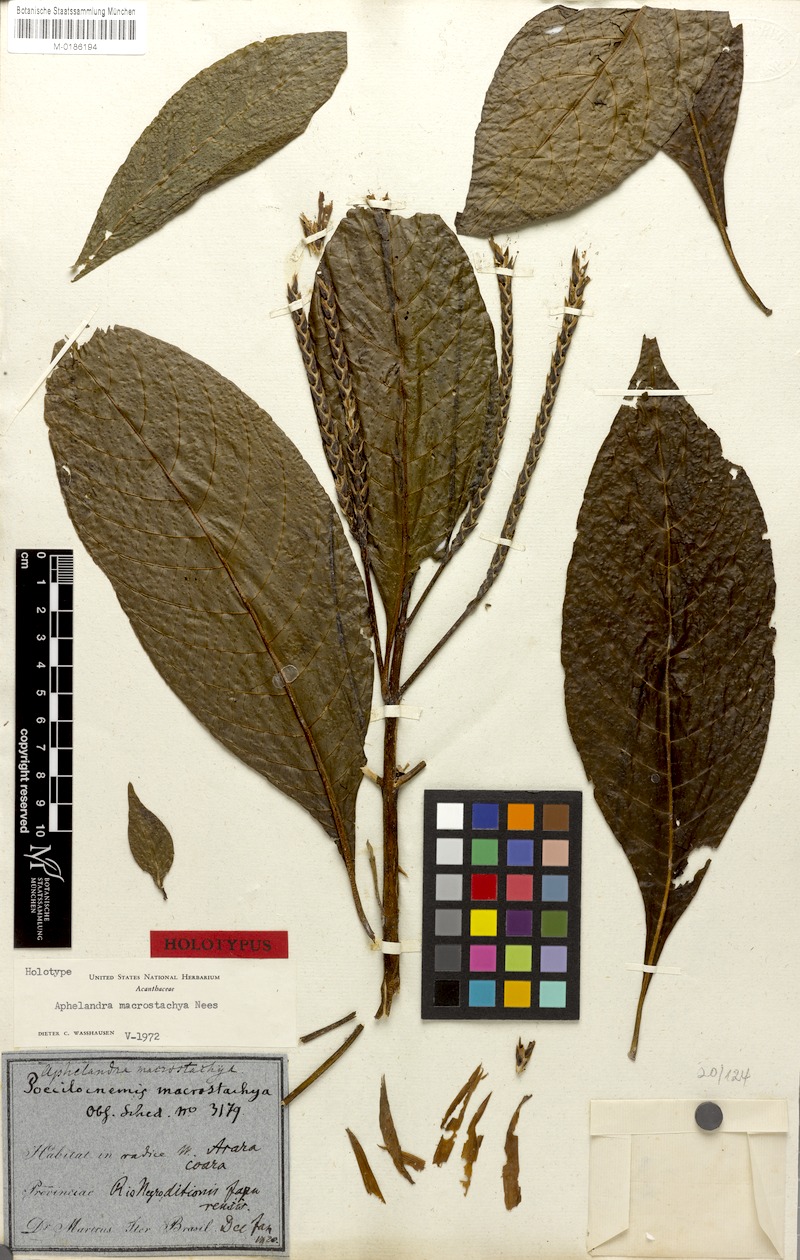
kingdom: Plantae
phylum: Tracheophyta
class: Magnoliopsida
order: Lamiales
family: Acanthaceae
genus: Aphelandra
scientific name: Aphelandra macrostachya
